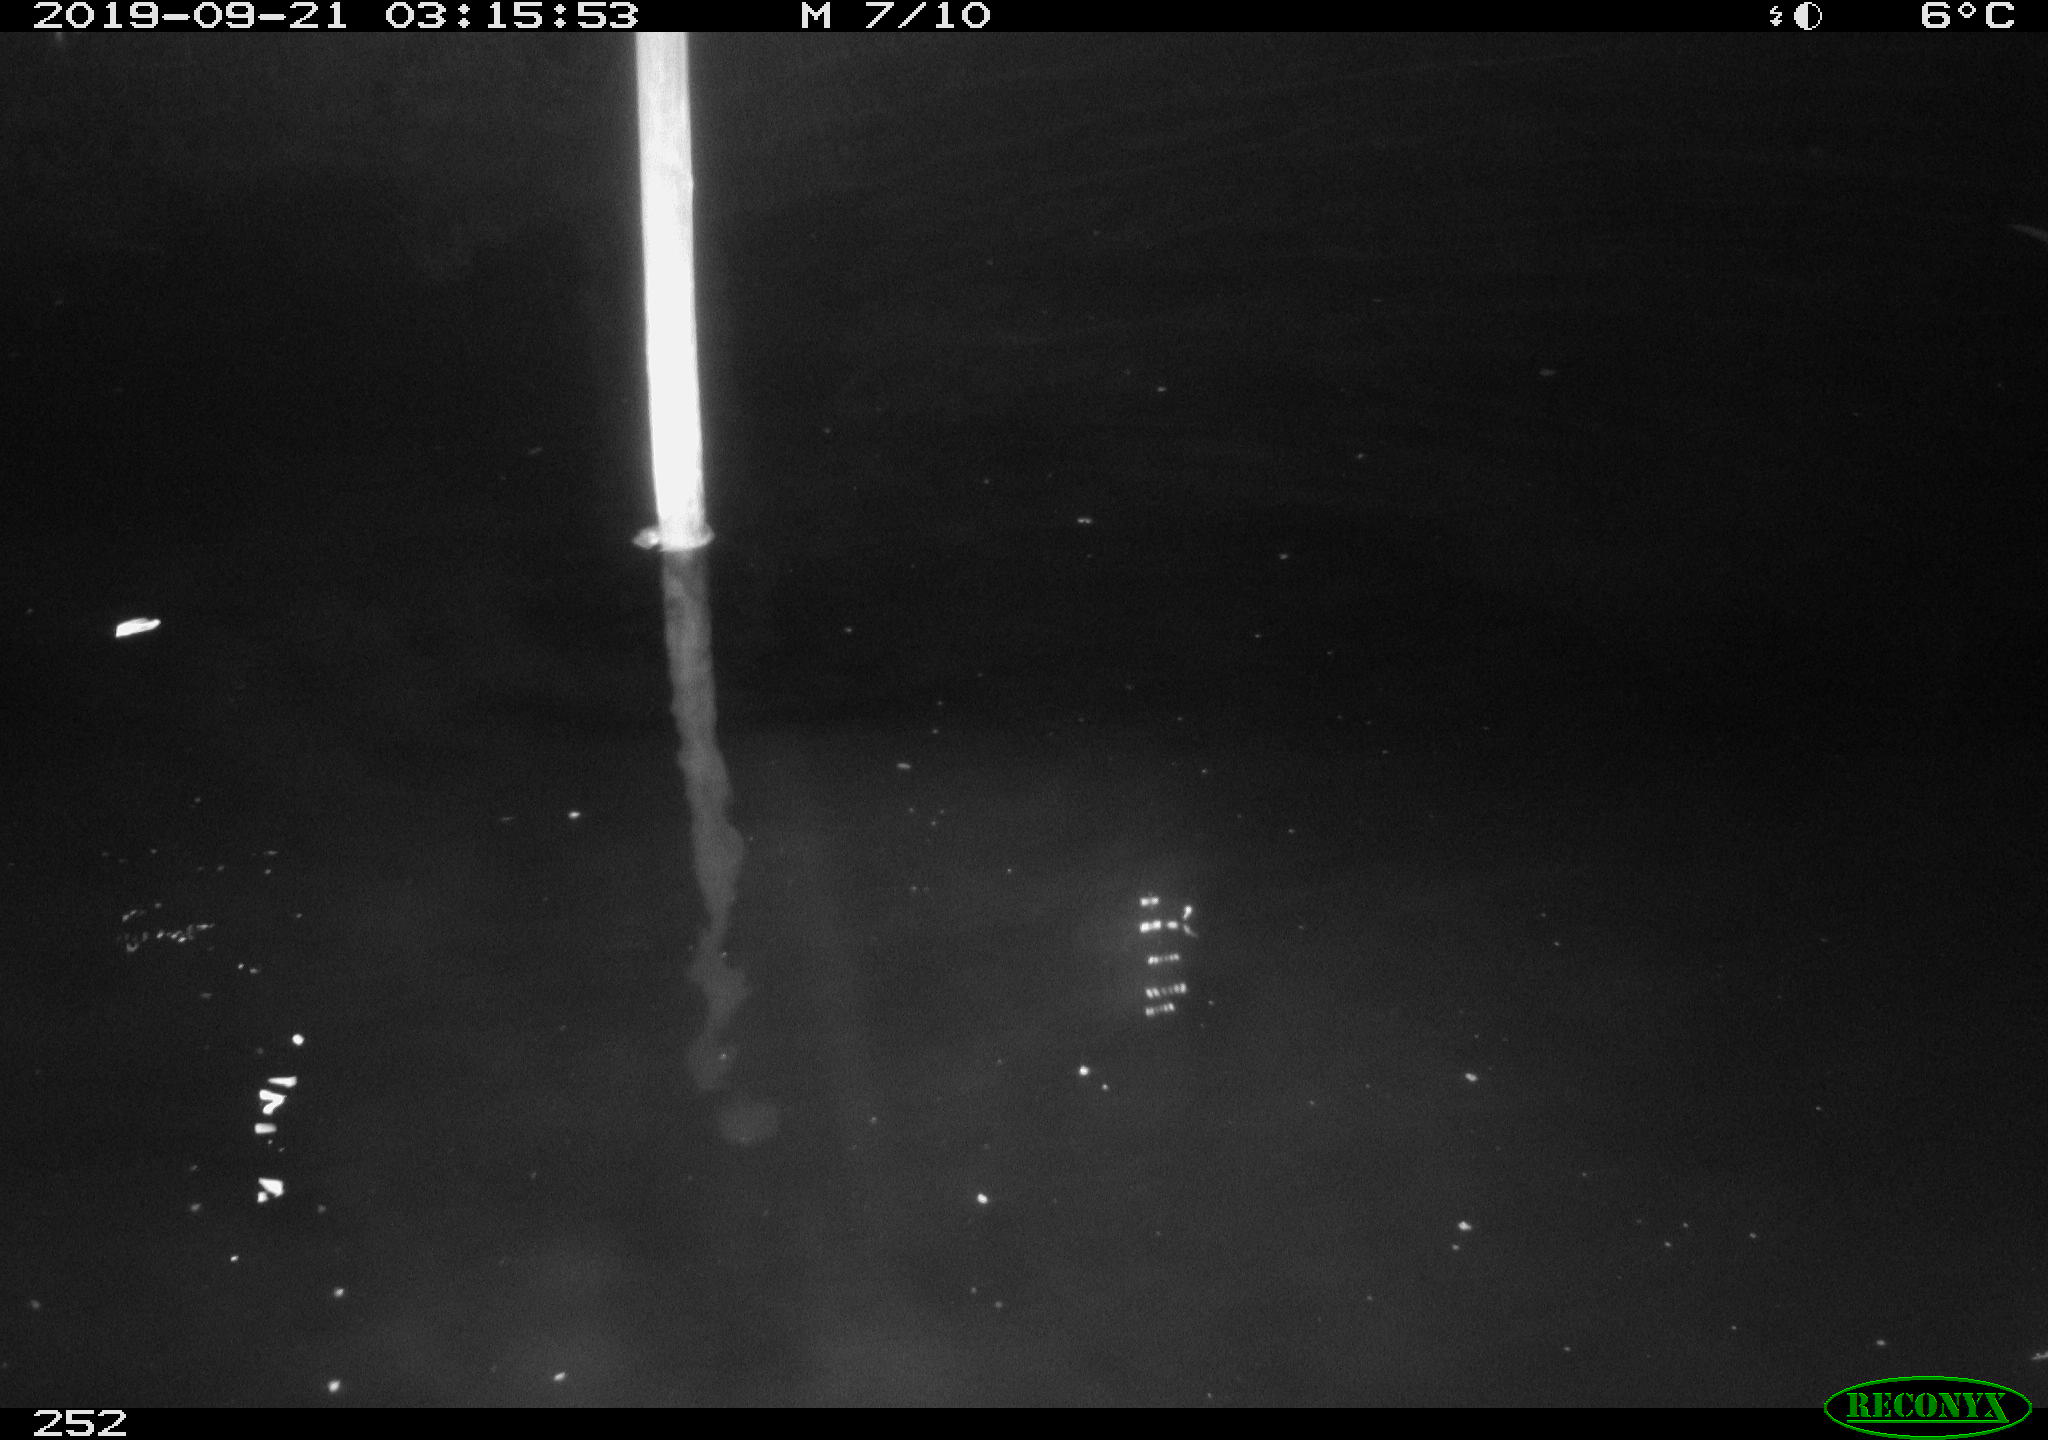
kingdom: Animalia
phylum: Chordata
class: Aves
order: Anseriformes
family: Anatidae
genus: Anas
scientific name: Anas platyrhynchos
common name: Mallard
